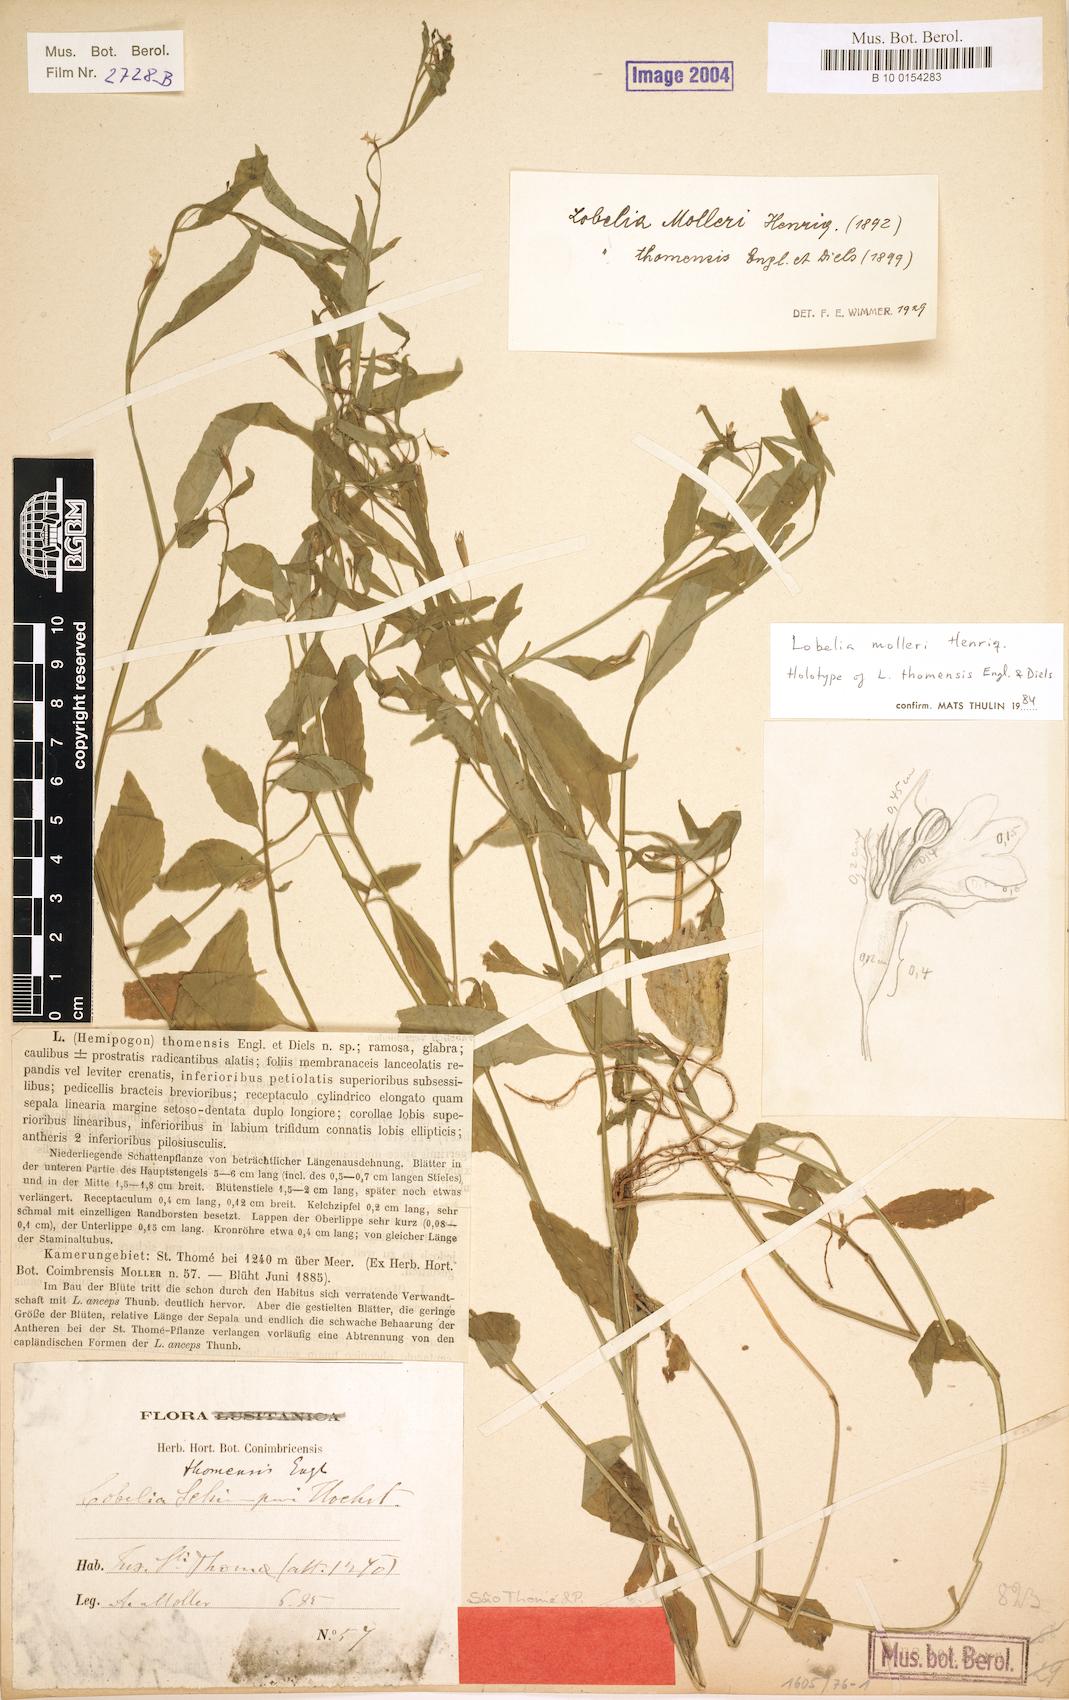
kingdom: Plantae
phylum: Tracheophyta
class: Magnoliopsida
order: Asterales
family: Campanulaceae
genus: Lobelia
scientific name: Lobelia molleri
